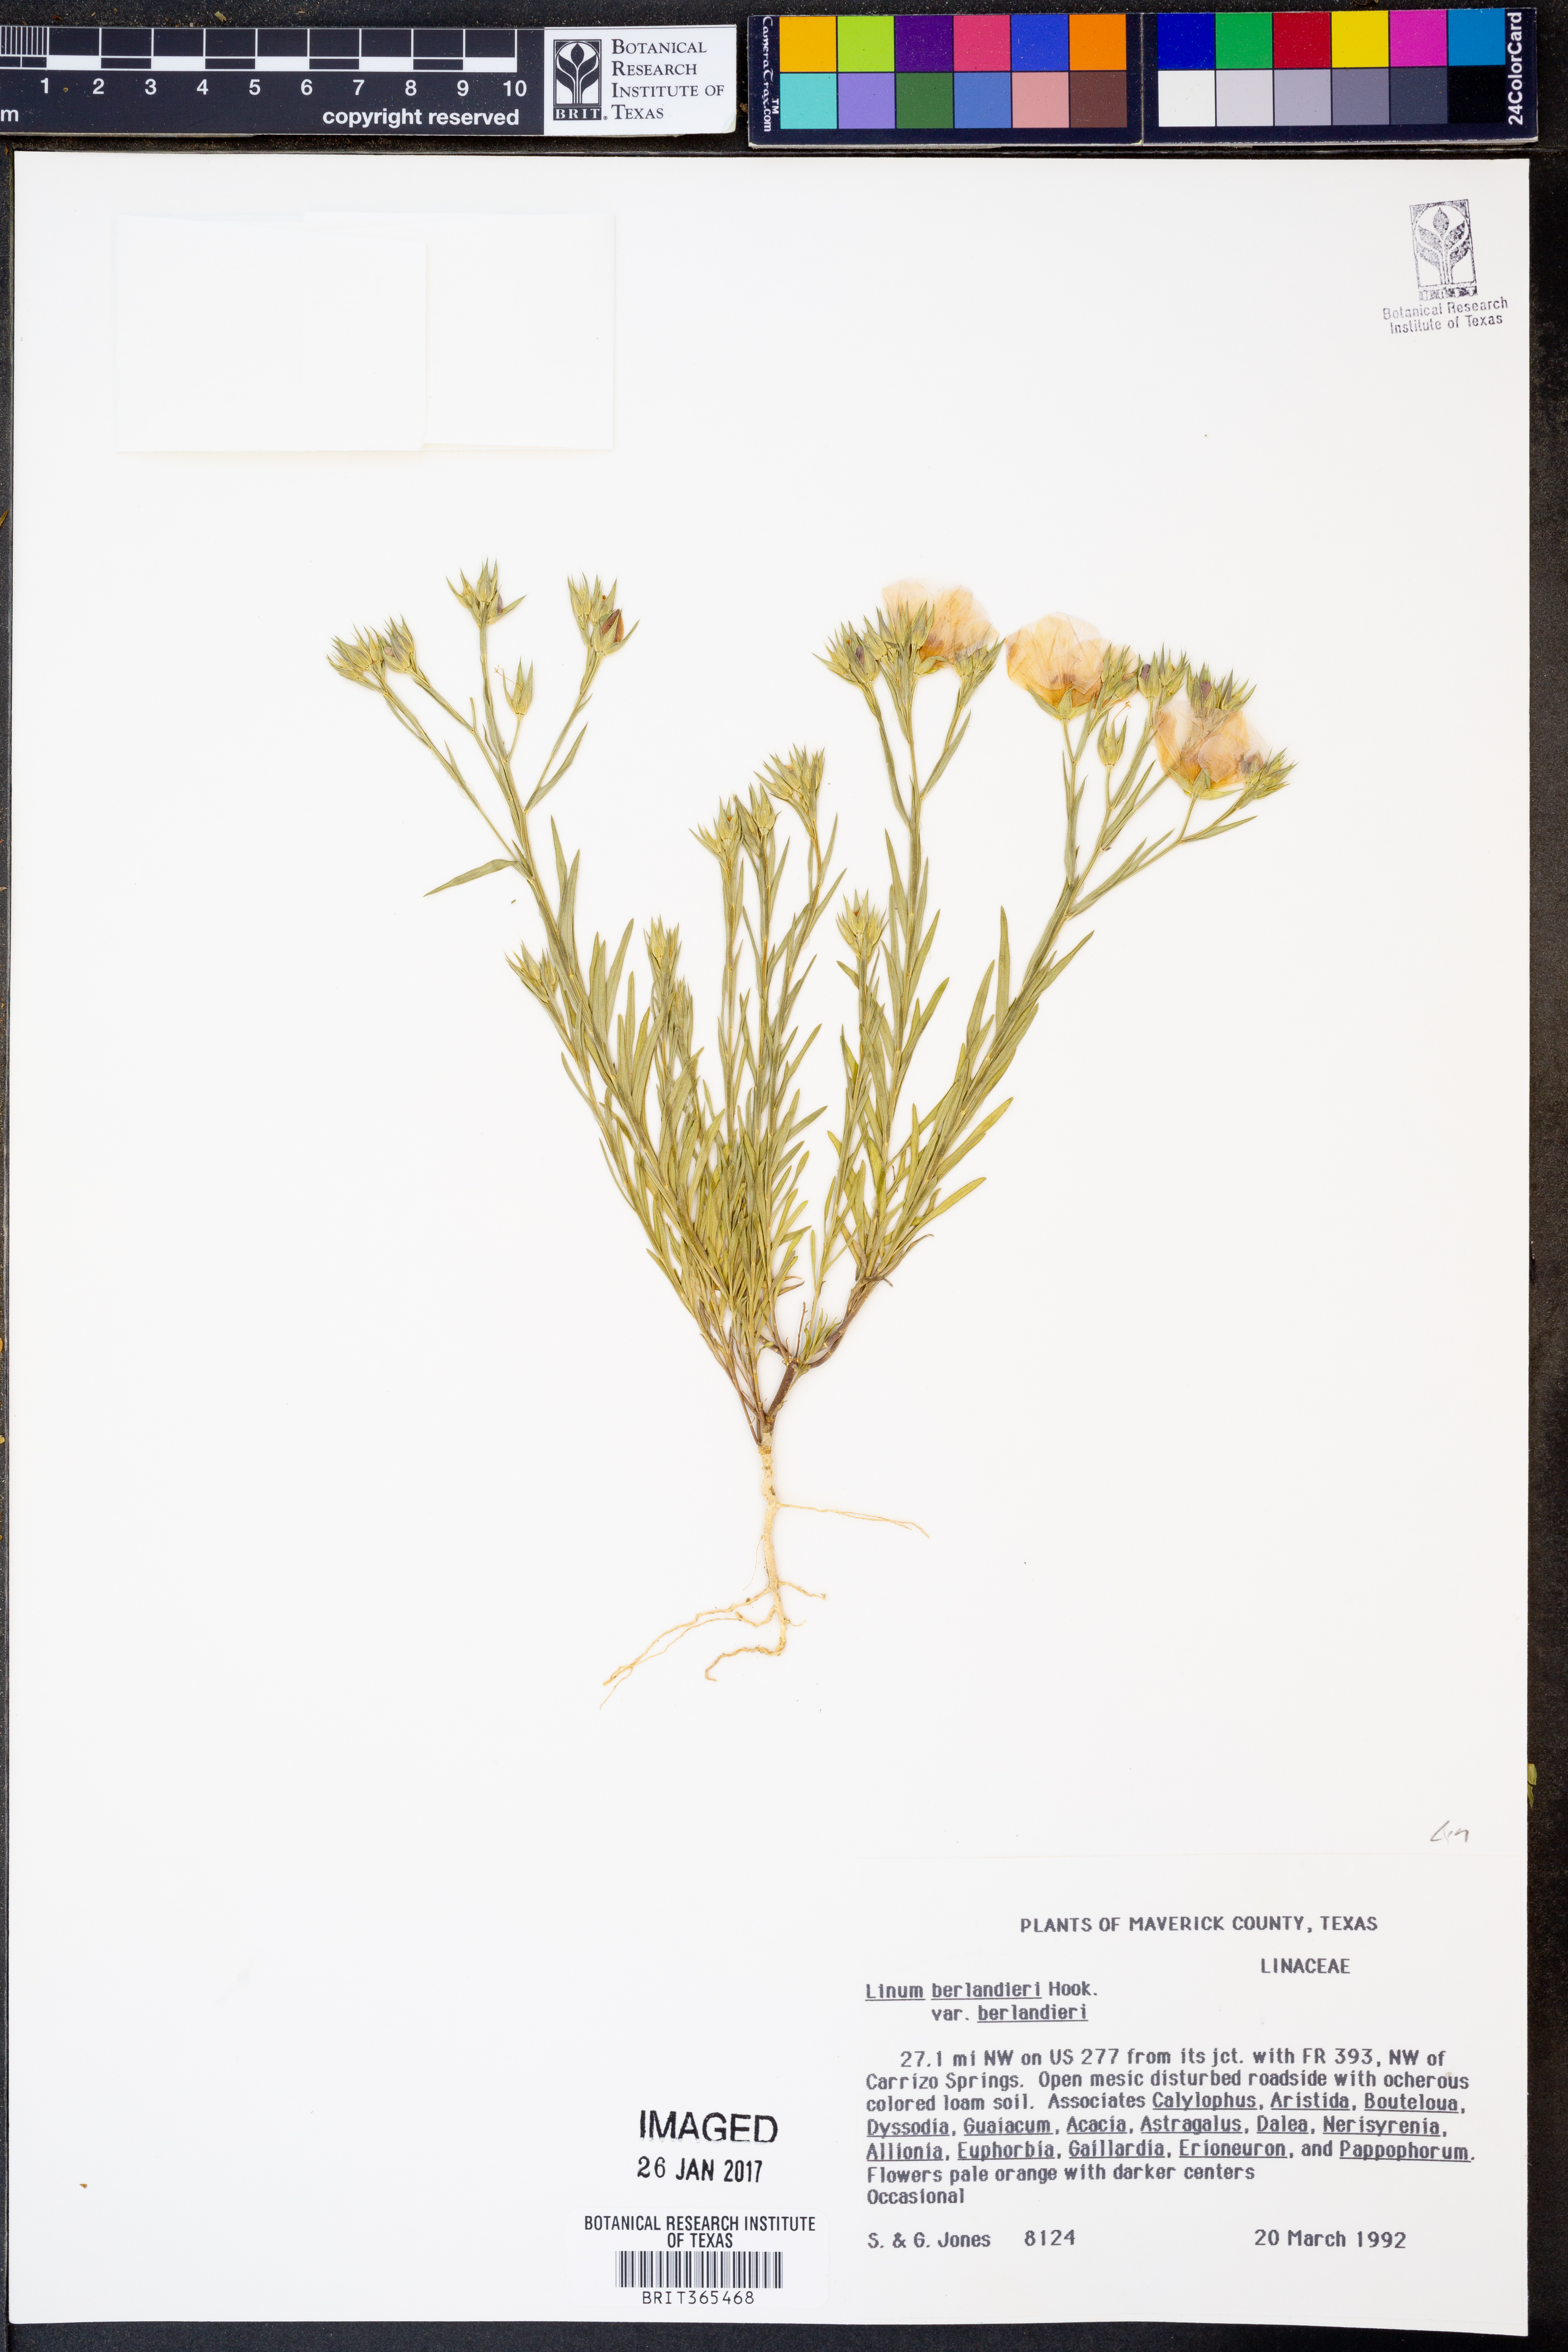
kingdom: Plantae
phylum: Tracheophyta
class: Magnoliopsida
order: Malpighiales
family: Linaceae
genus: Linum
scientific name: Linum berlandieri
